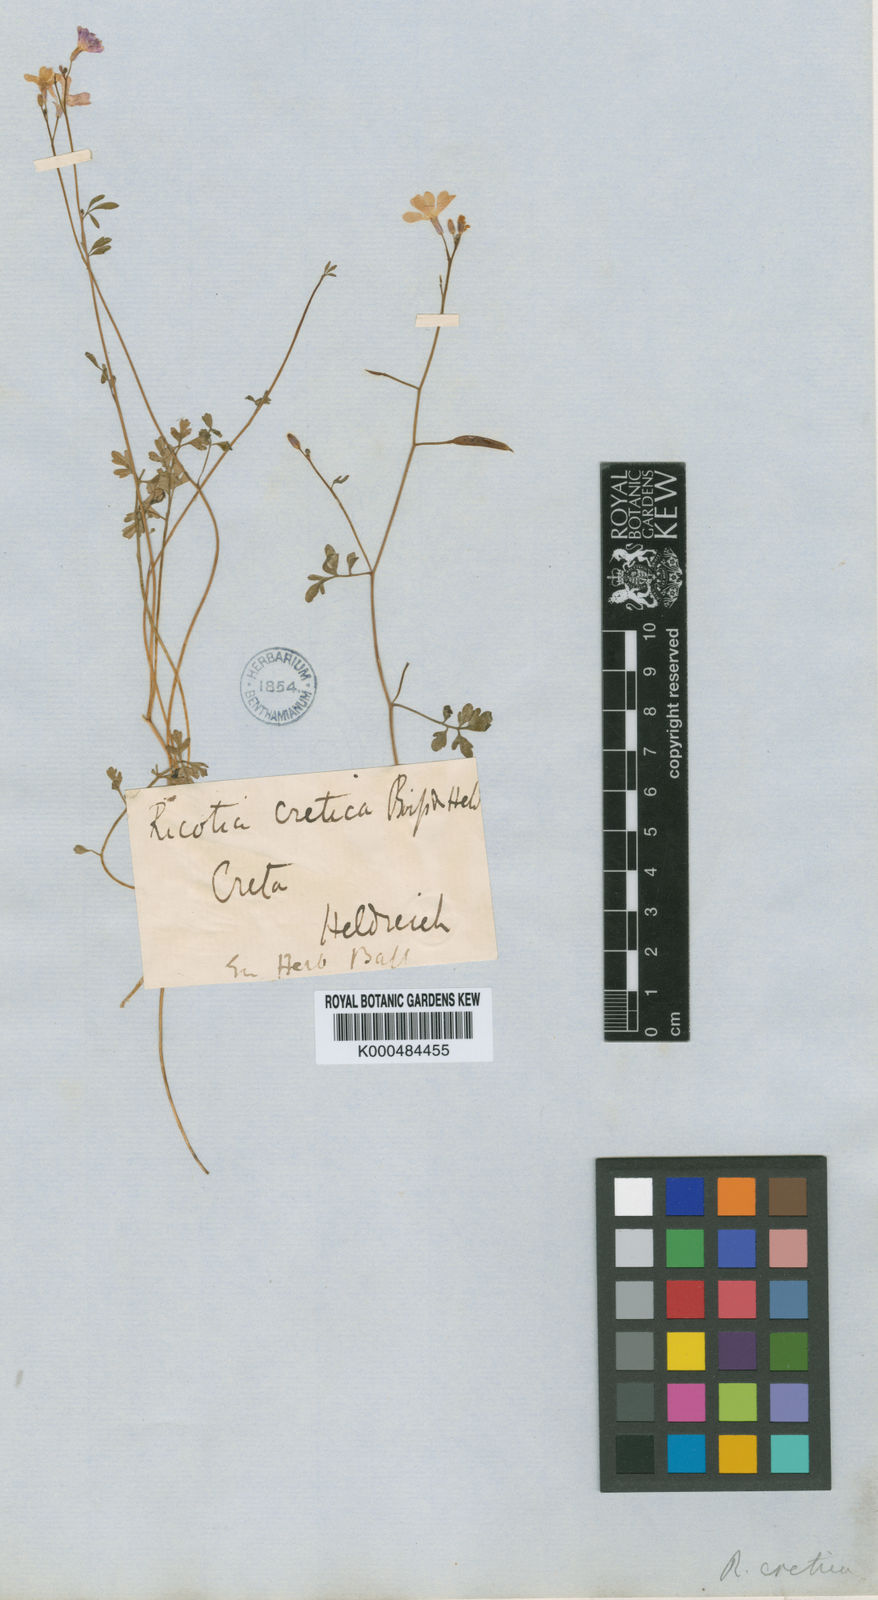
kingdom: Plantae
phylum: Tracheophyta
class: Magnoliopsida
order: Brassicales
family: Brassicaceae
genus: Ricotia
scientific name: Ricotia cretica
